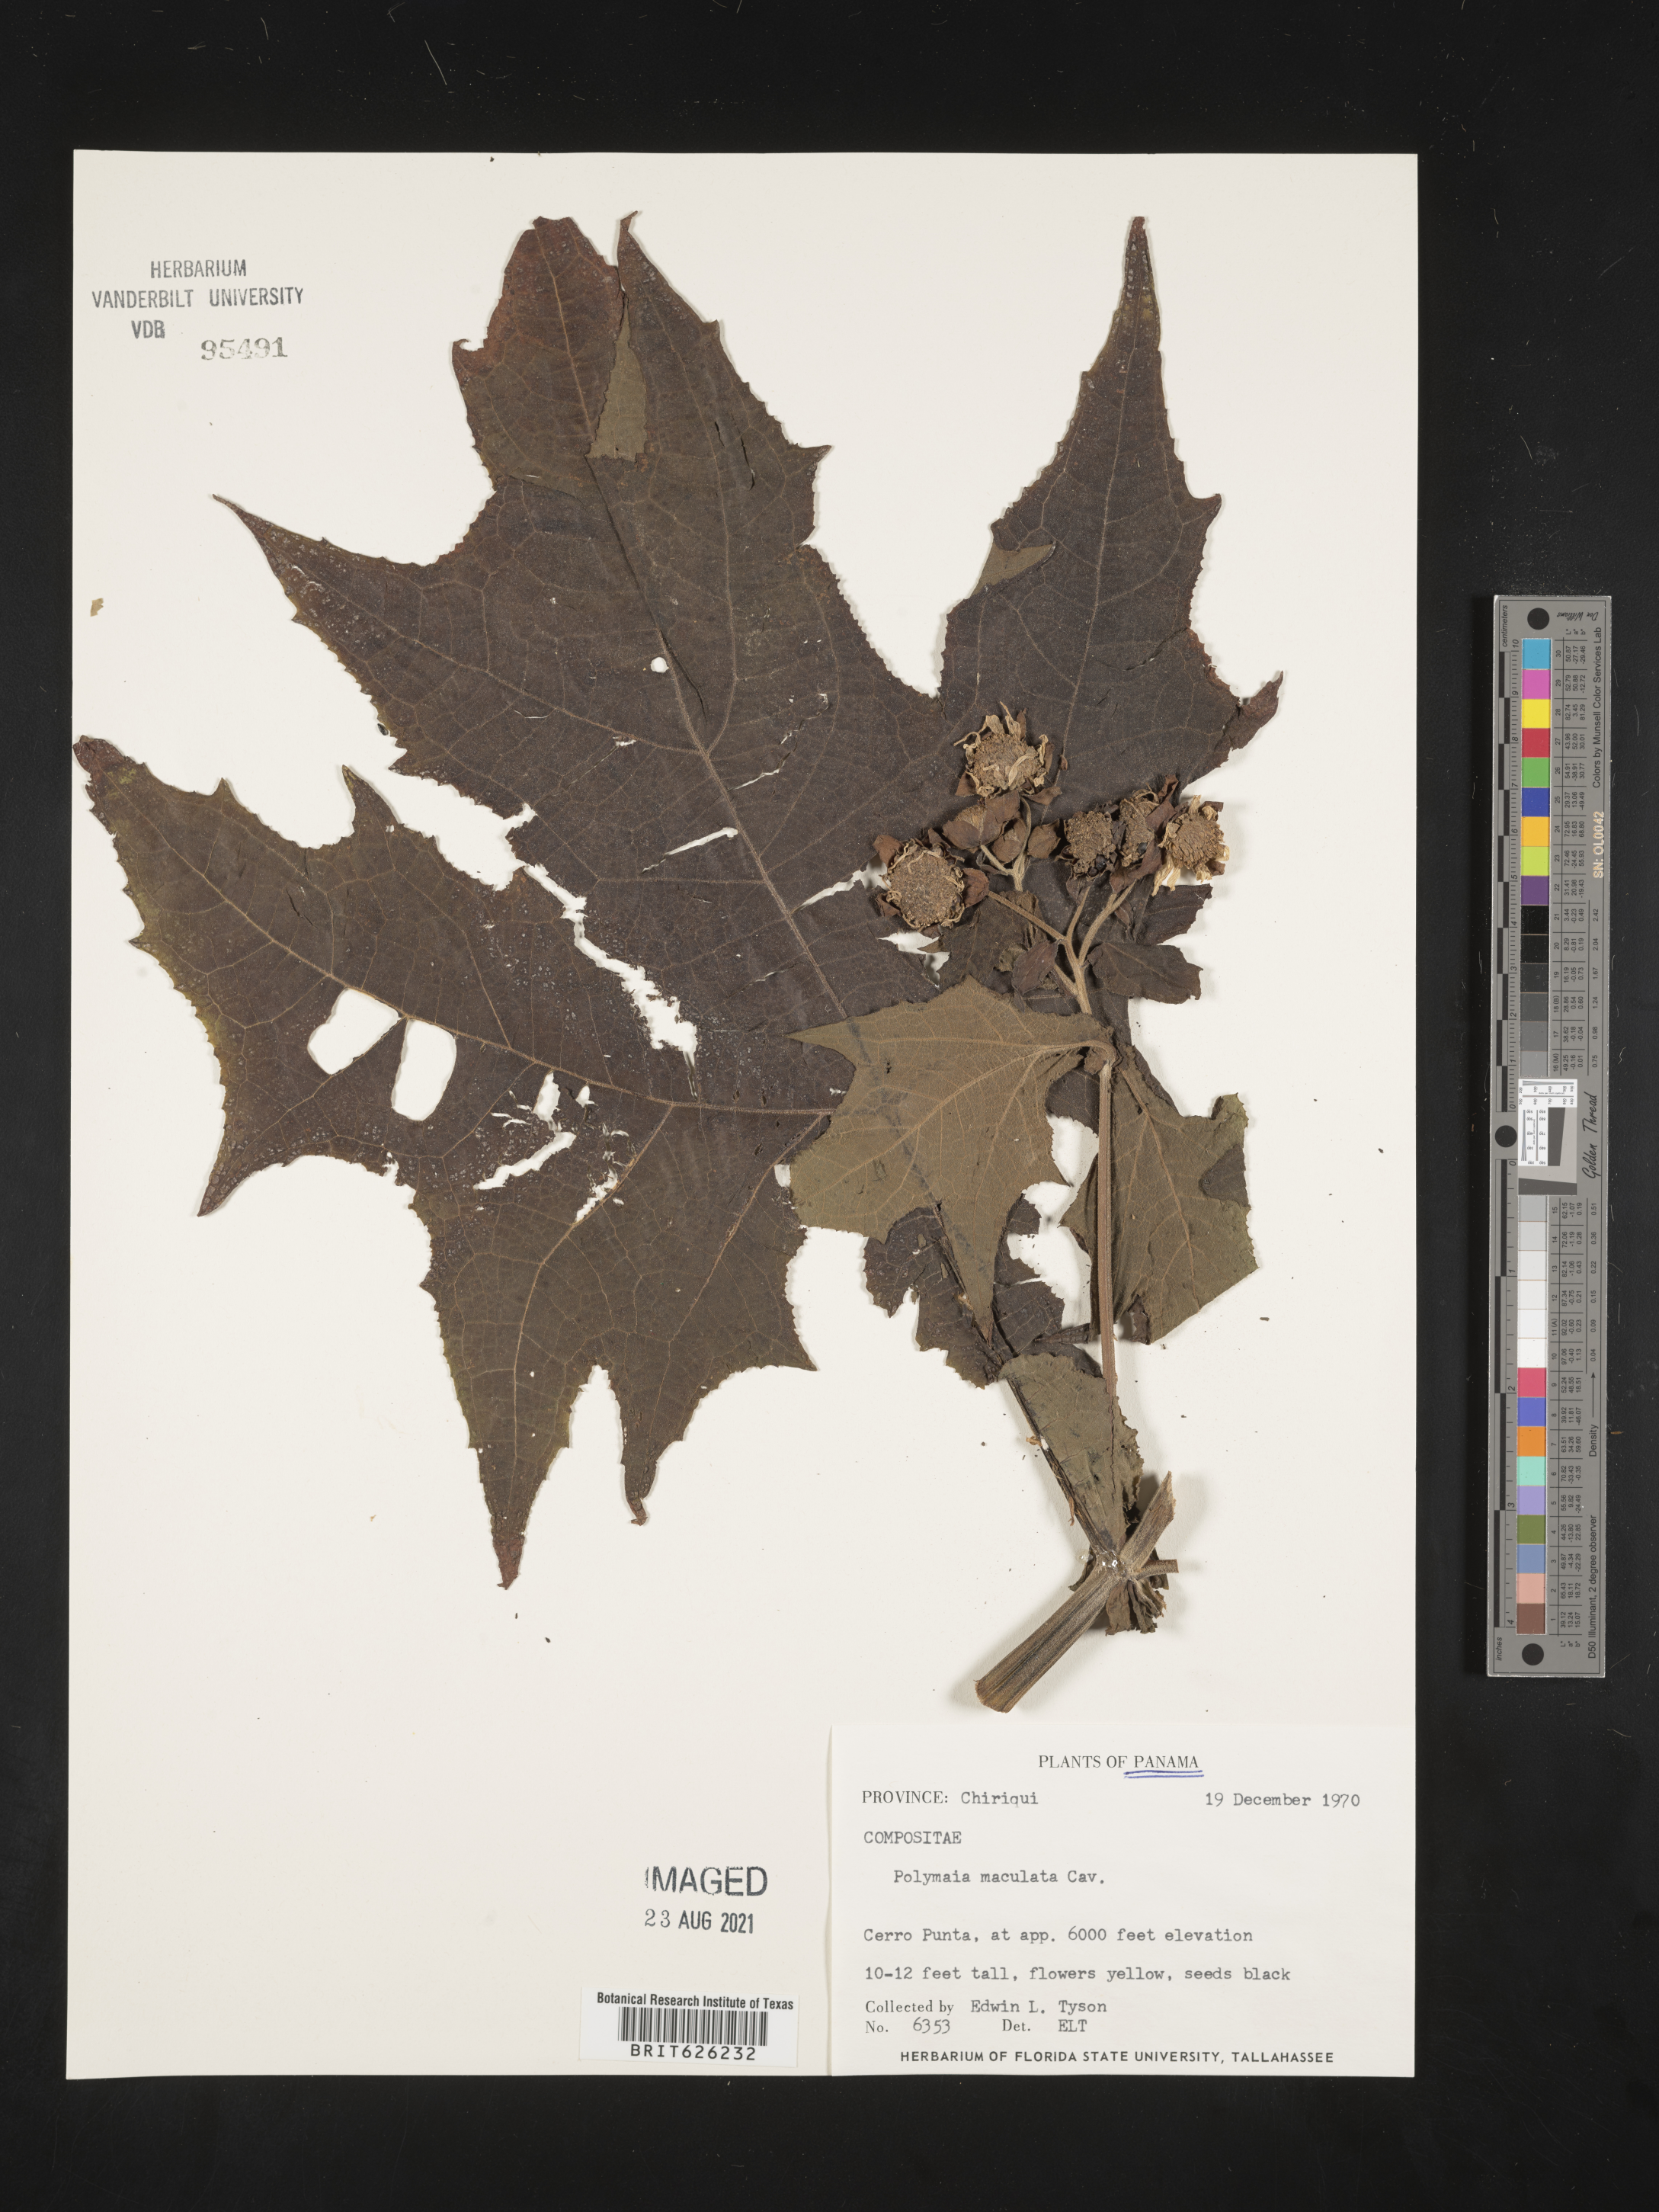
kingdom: Plantae
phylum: Tracheophyta
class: Magnoliopsida
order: Asterales
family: Asteraceae
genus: Smallanthus
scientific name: Smallanthus maculatus
